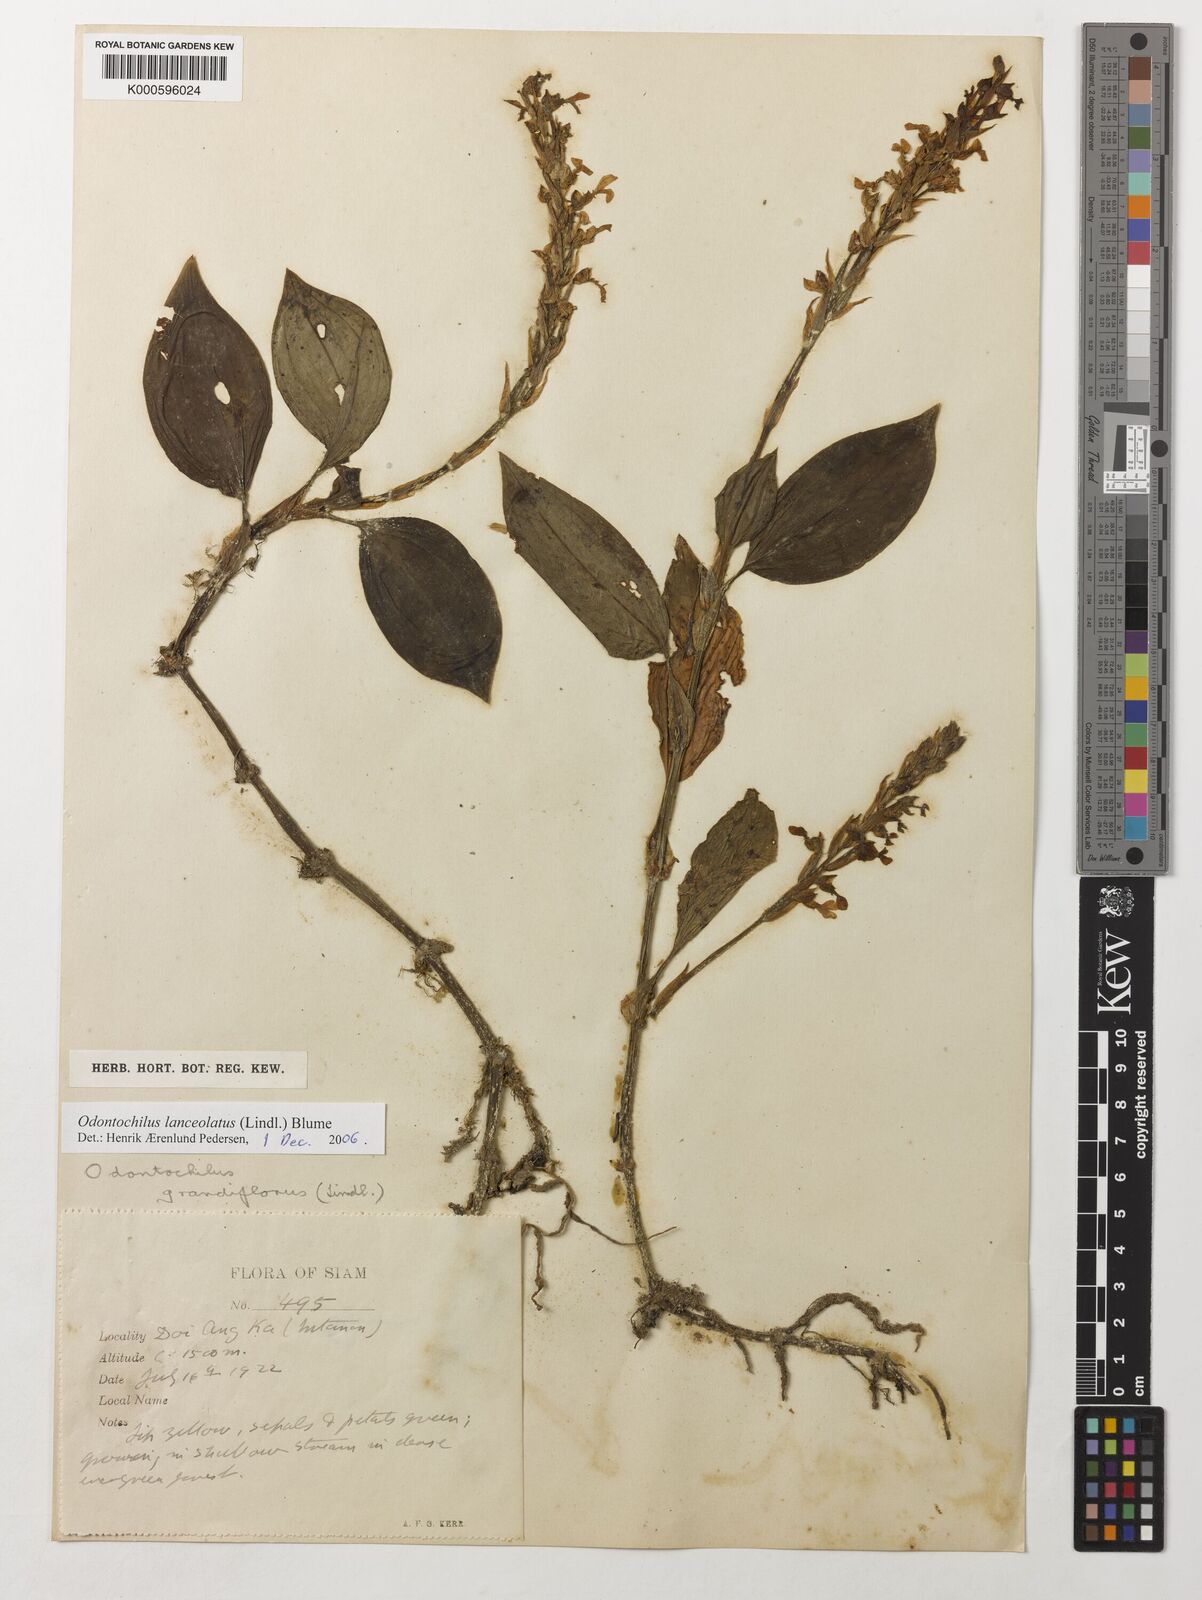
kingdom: Plantae
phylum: Tracheophyta
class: Liliopsida
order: Asparagales
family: Orchidaceae
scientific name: Orchidaceae
